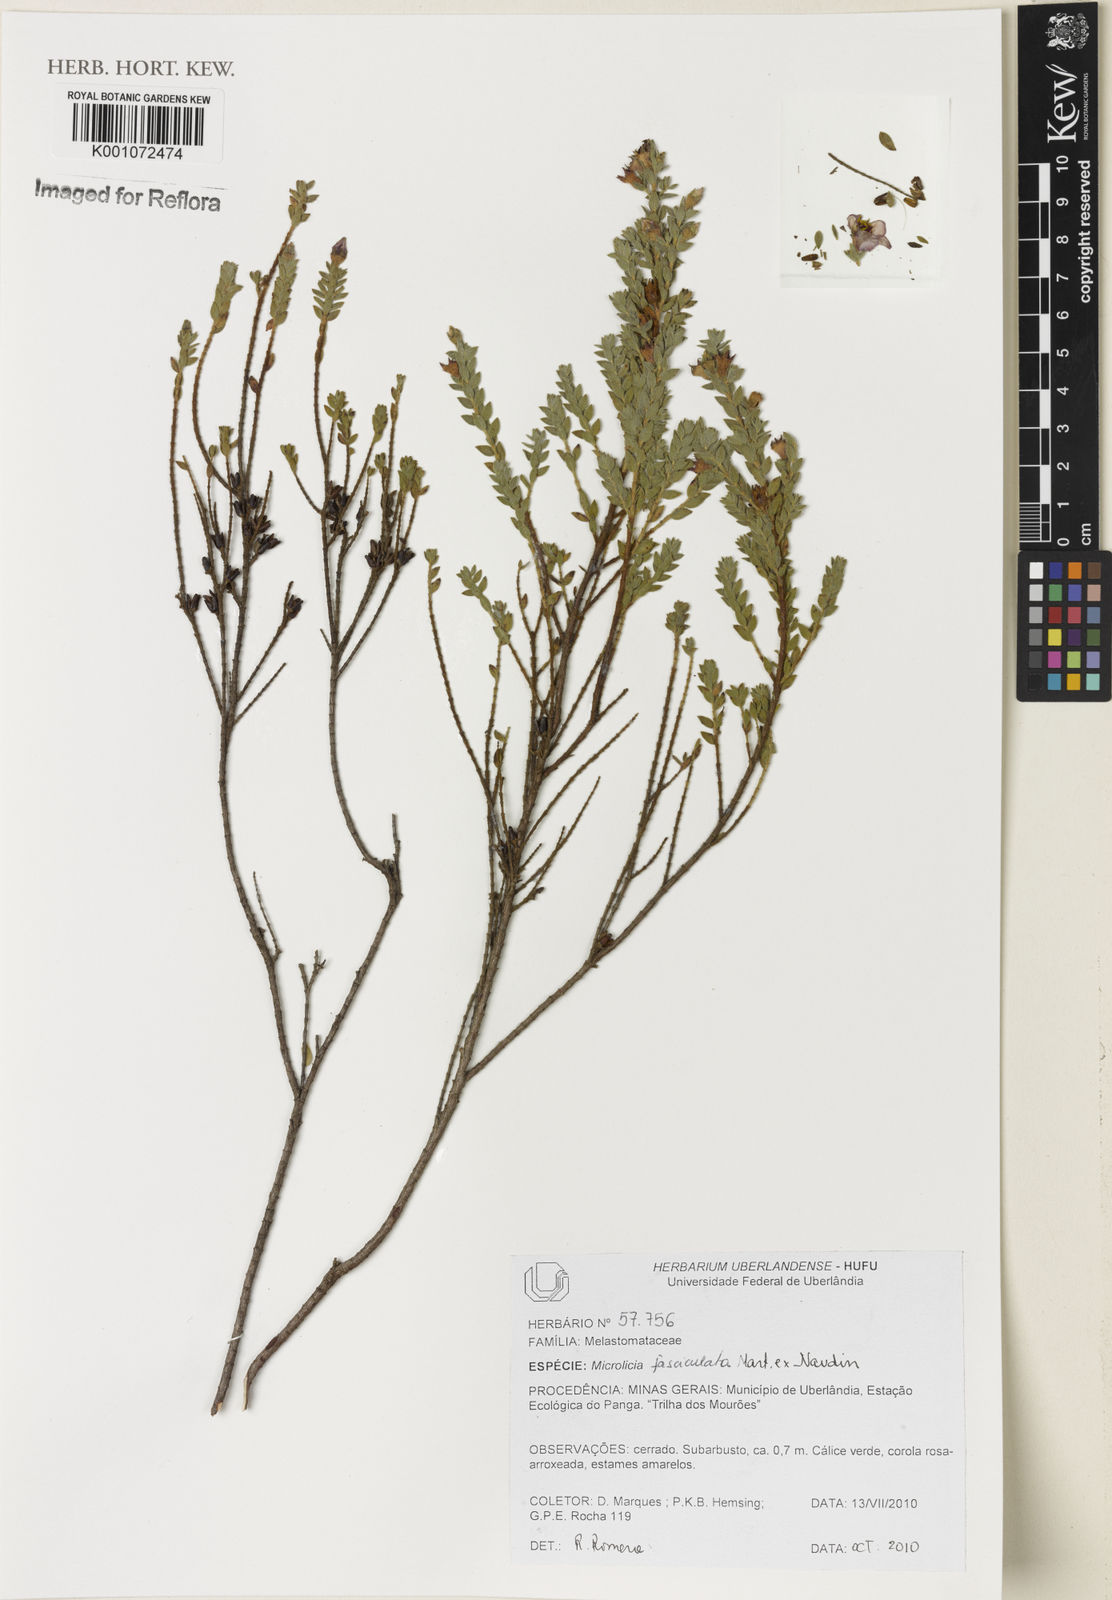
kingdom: Plantae
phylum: Tracheophyta
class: Magnoliopsida
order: Myrtales
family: Melastomataceae
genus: Microlicia
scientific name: Microlicia fasciculata
